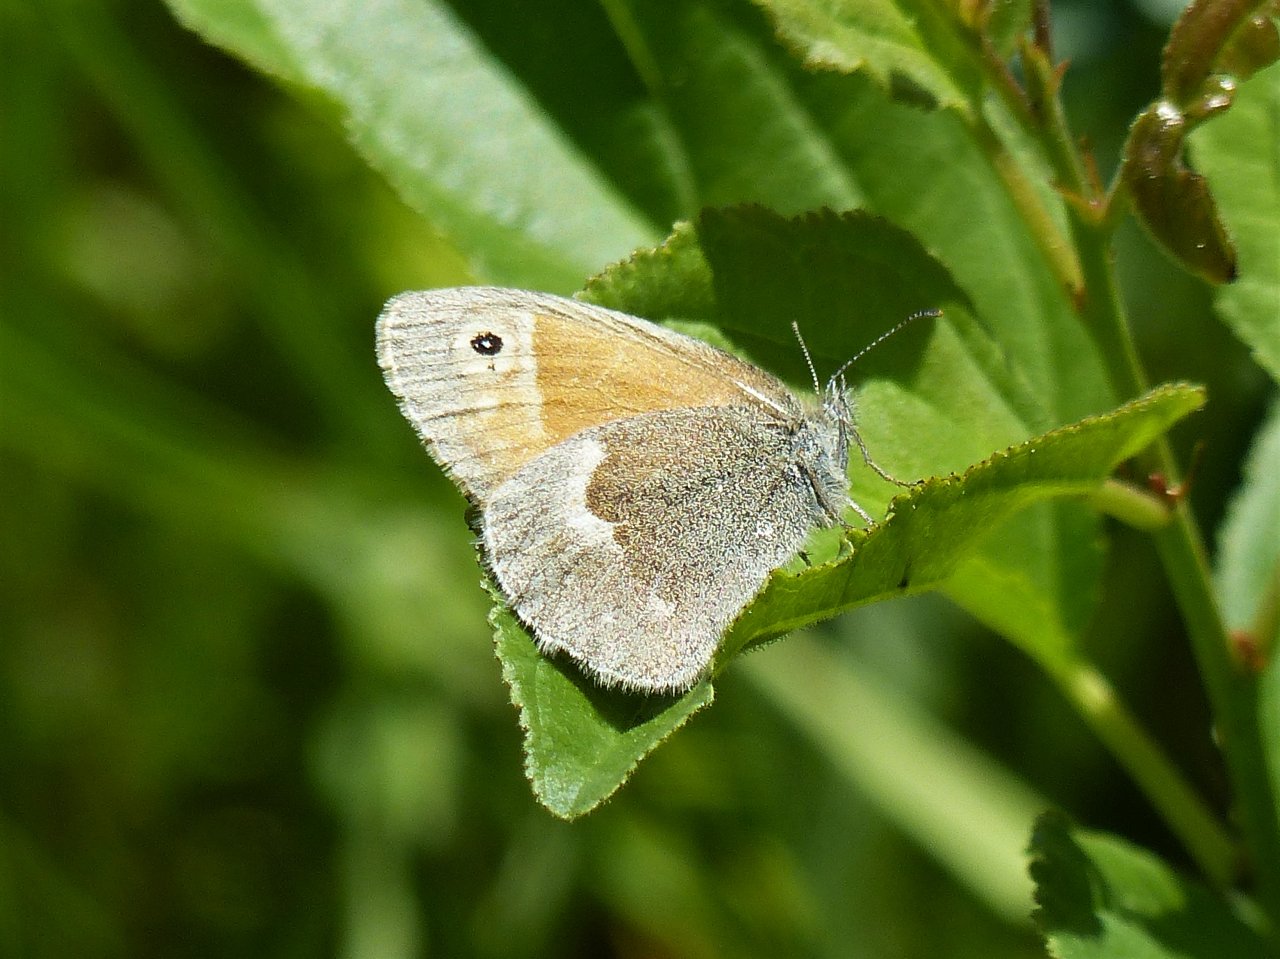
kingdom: Animalia
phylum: Arthropoda
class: Insecta
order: Lepidoptera
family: Nymphalidae
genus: Coenonympha
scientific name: Coenonympha tullia
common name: Large Heath
